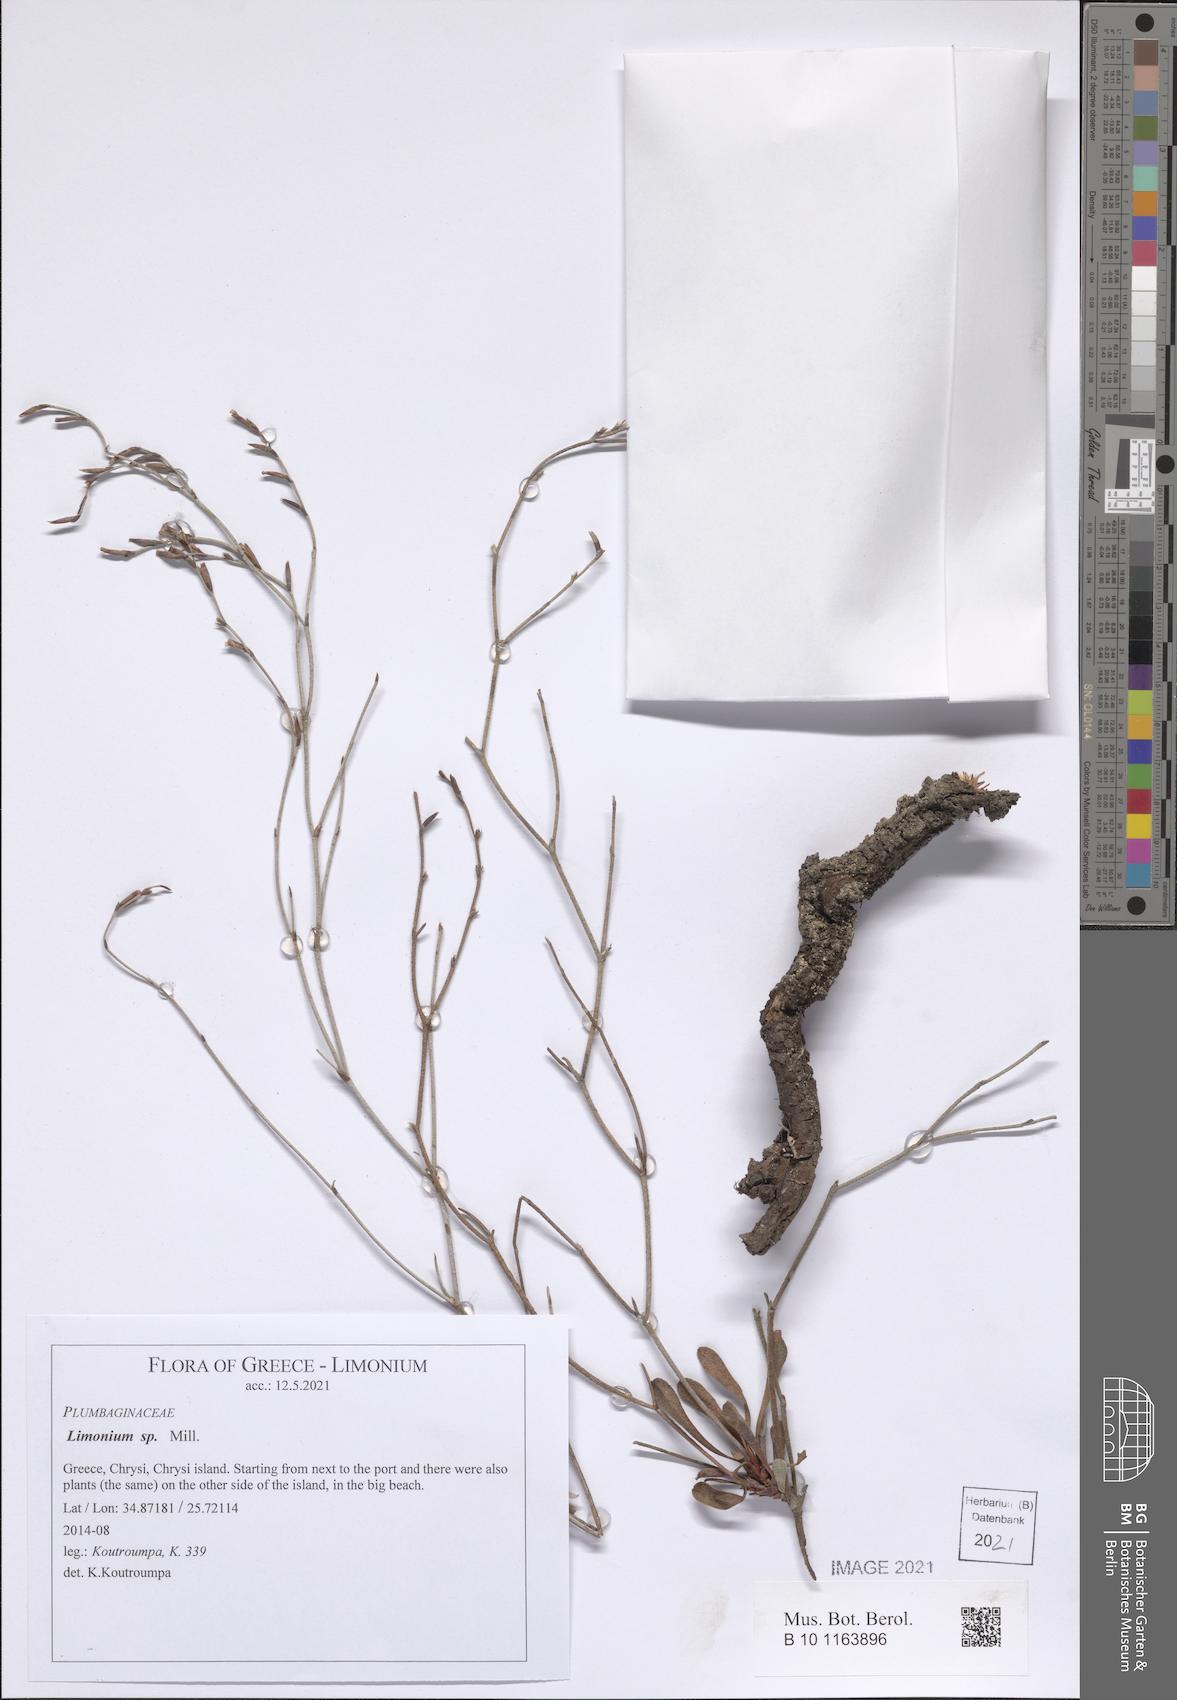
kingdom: Plantae
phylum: Tracheophyta
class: Magnoliopsida
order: Caryophyllales
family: Plumbaginaceae
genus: Limonium
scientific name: Limonium
